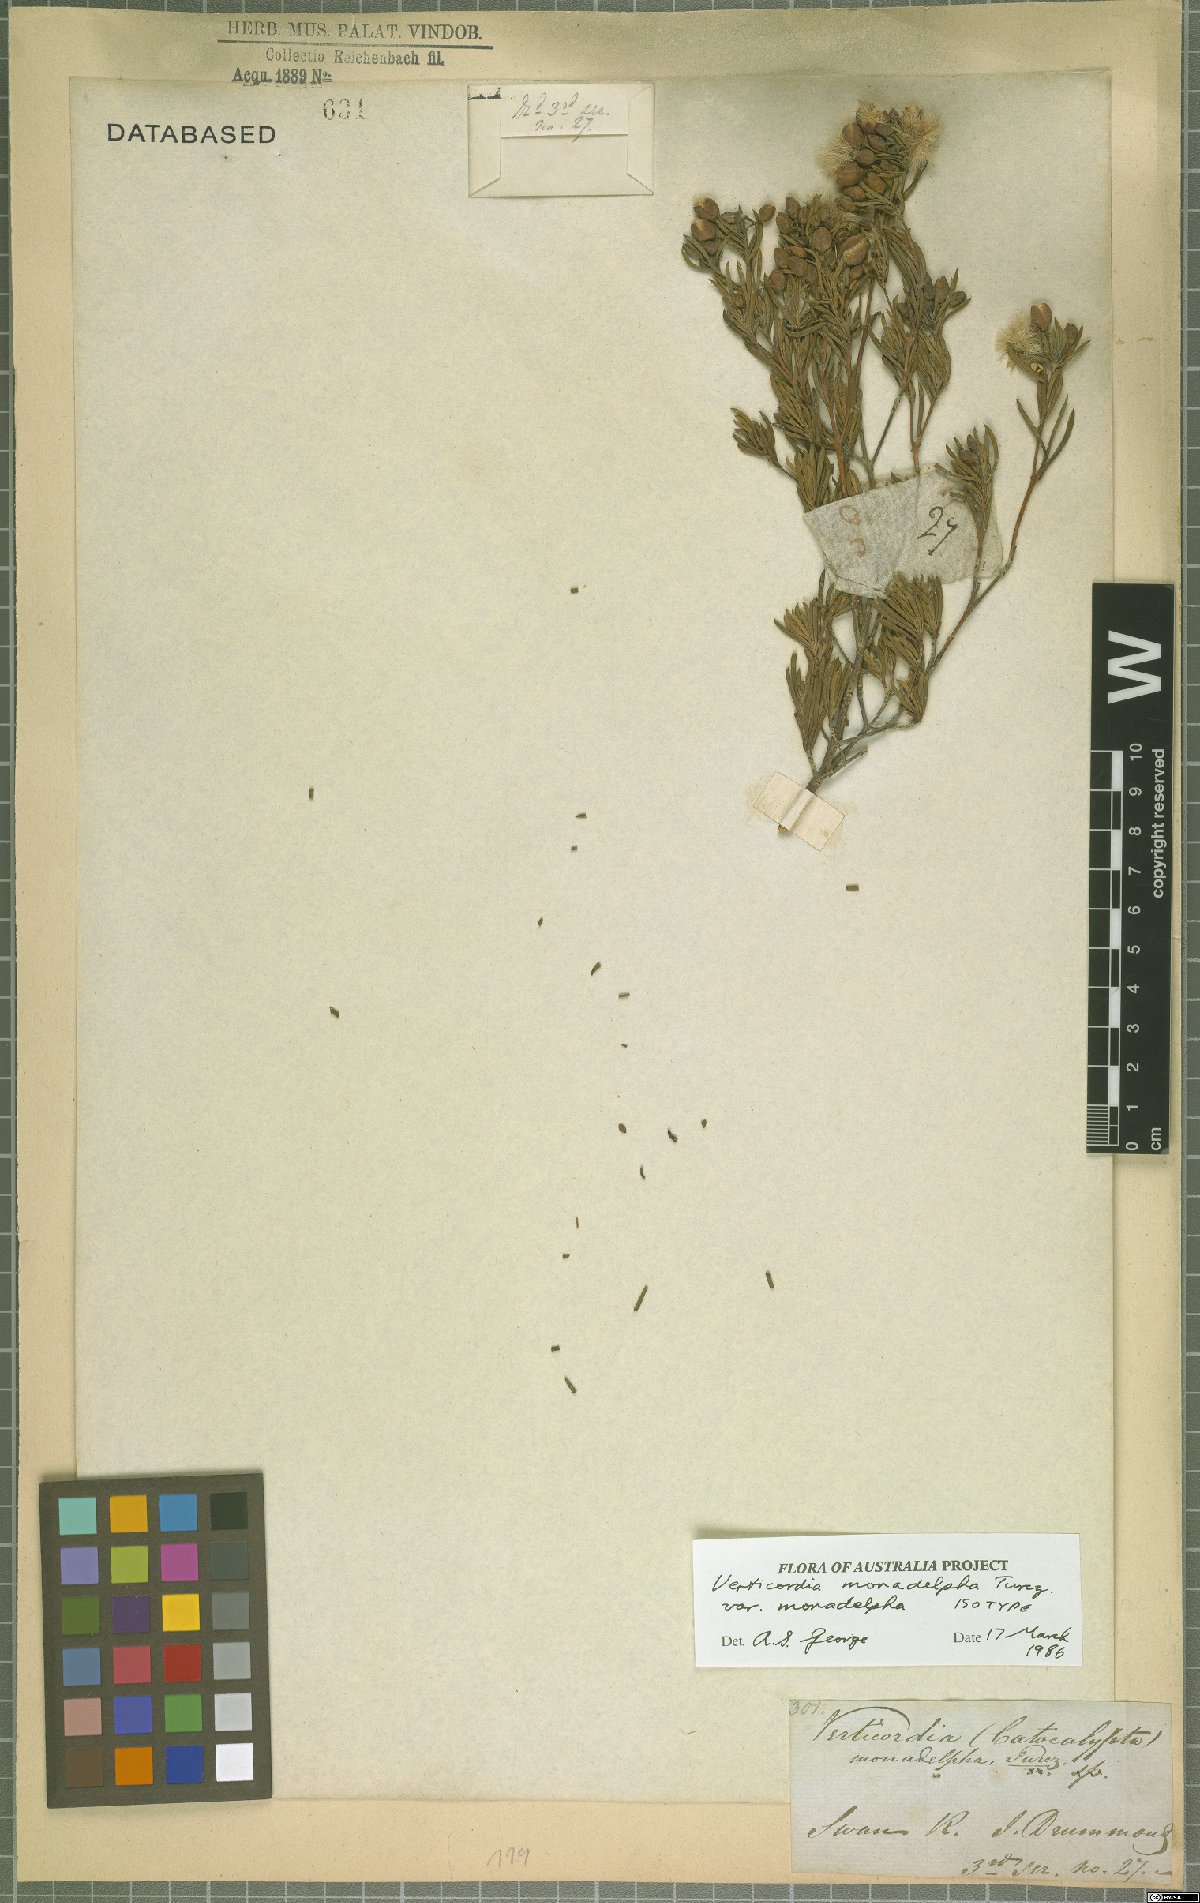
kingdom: Plantae
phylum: Tracheophyta
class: Magnoliopsida
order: Myrtales
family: Myrtaceae
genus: Verticordia
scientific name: Verticordia monadelpha
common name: Woolly feather-flower
